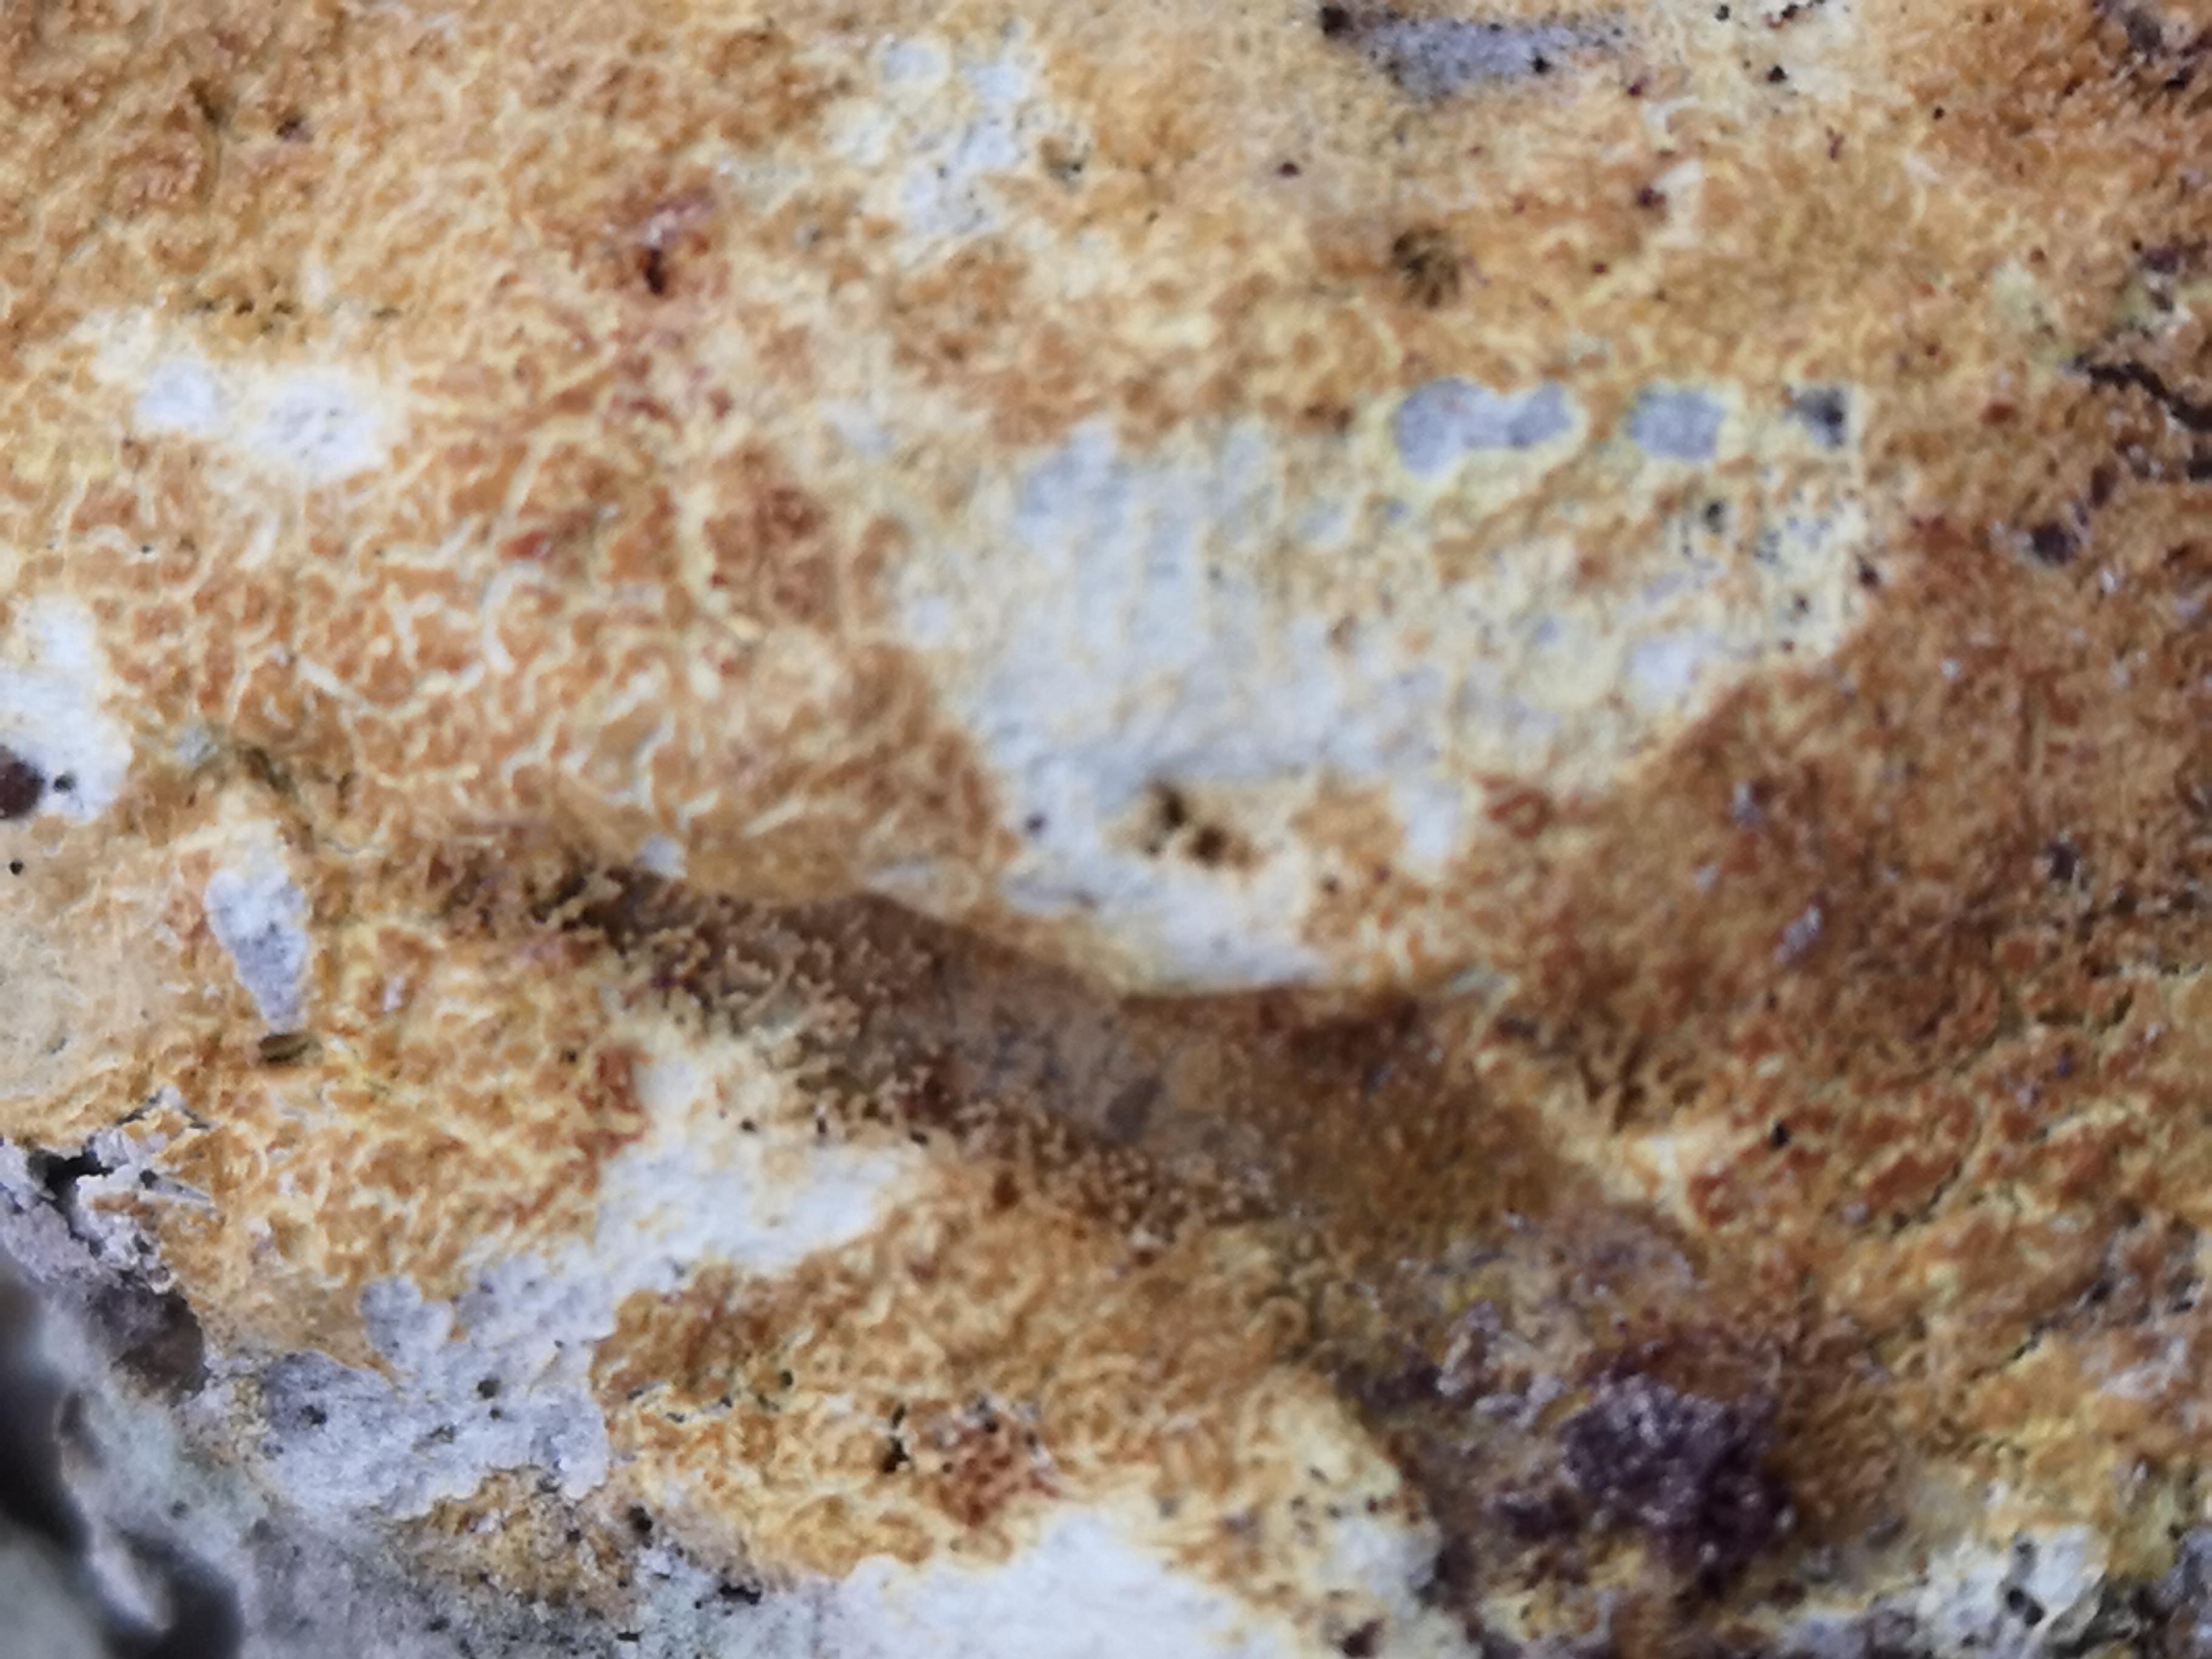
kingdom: Fungi
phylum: Basidiomycota
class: Agaricomycetes
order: Corticiales
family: Corticiaceae
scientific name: Corticiaceae
